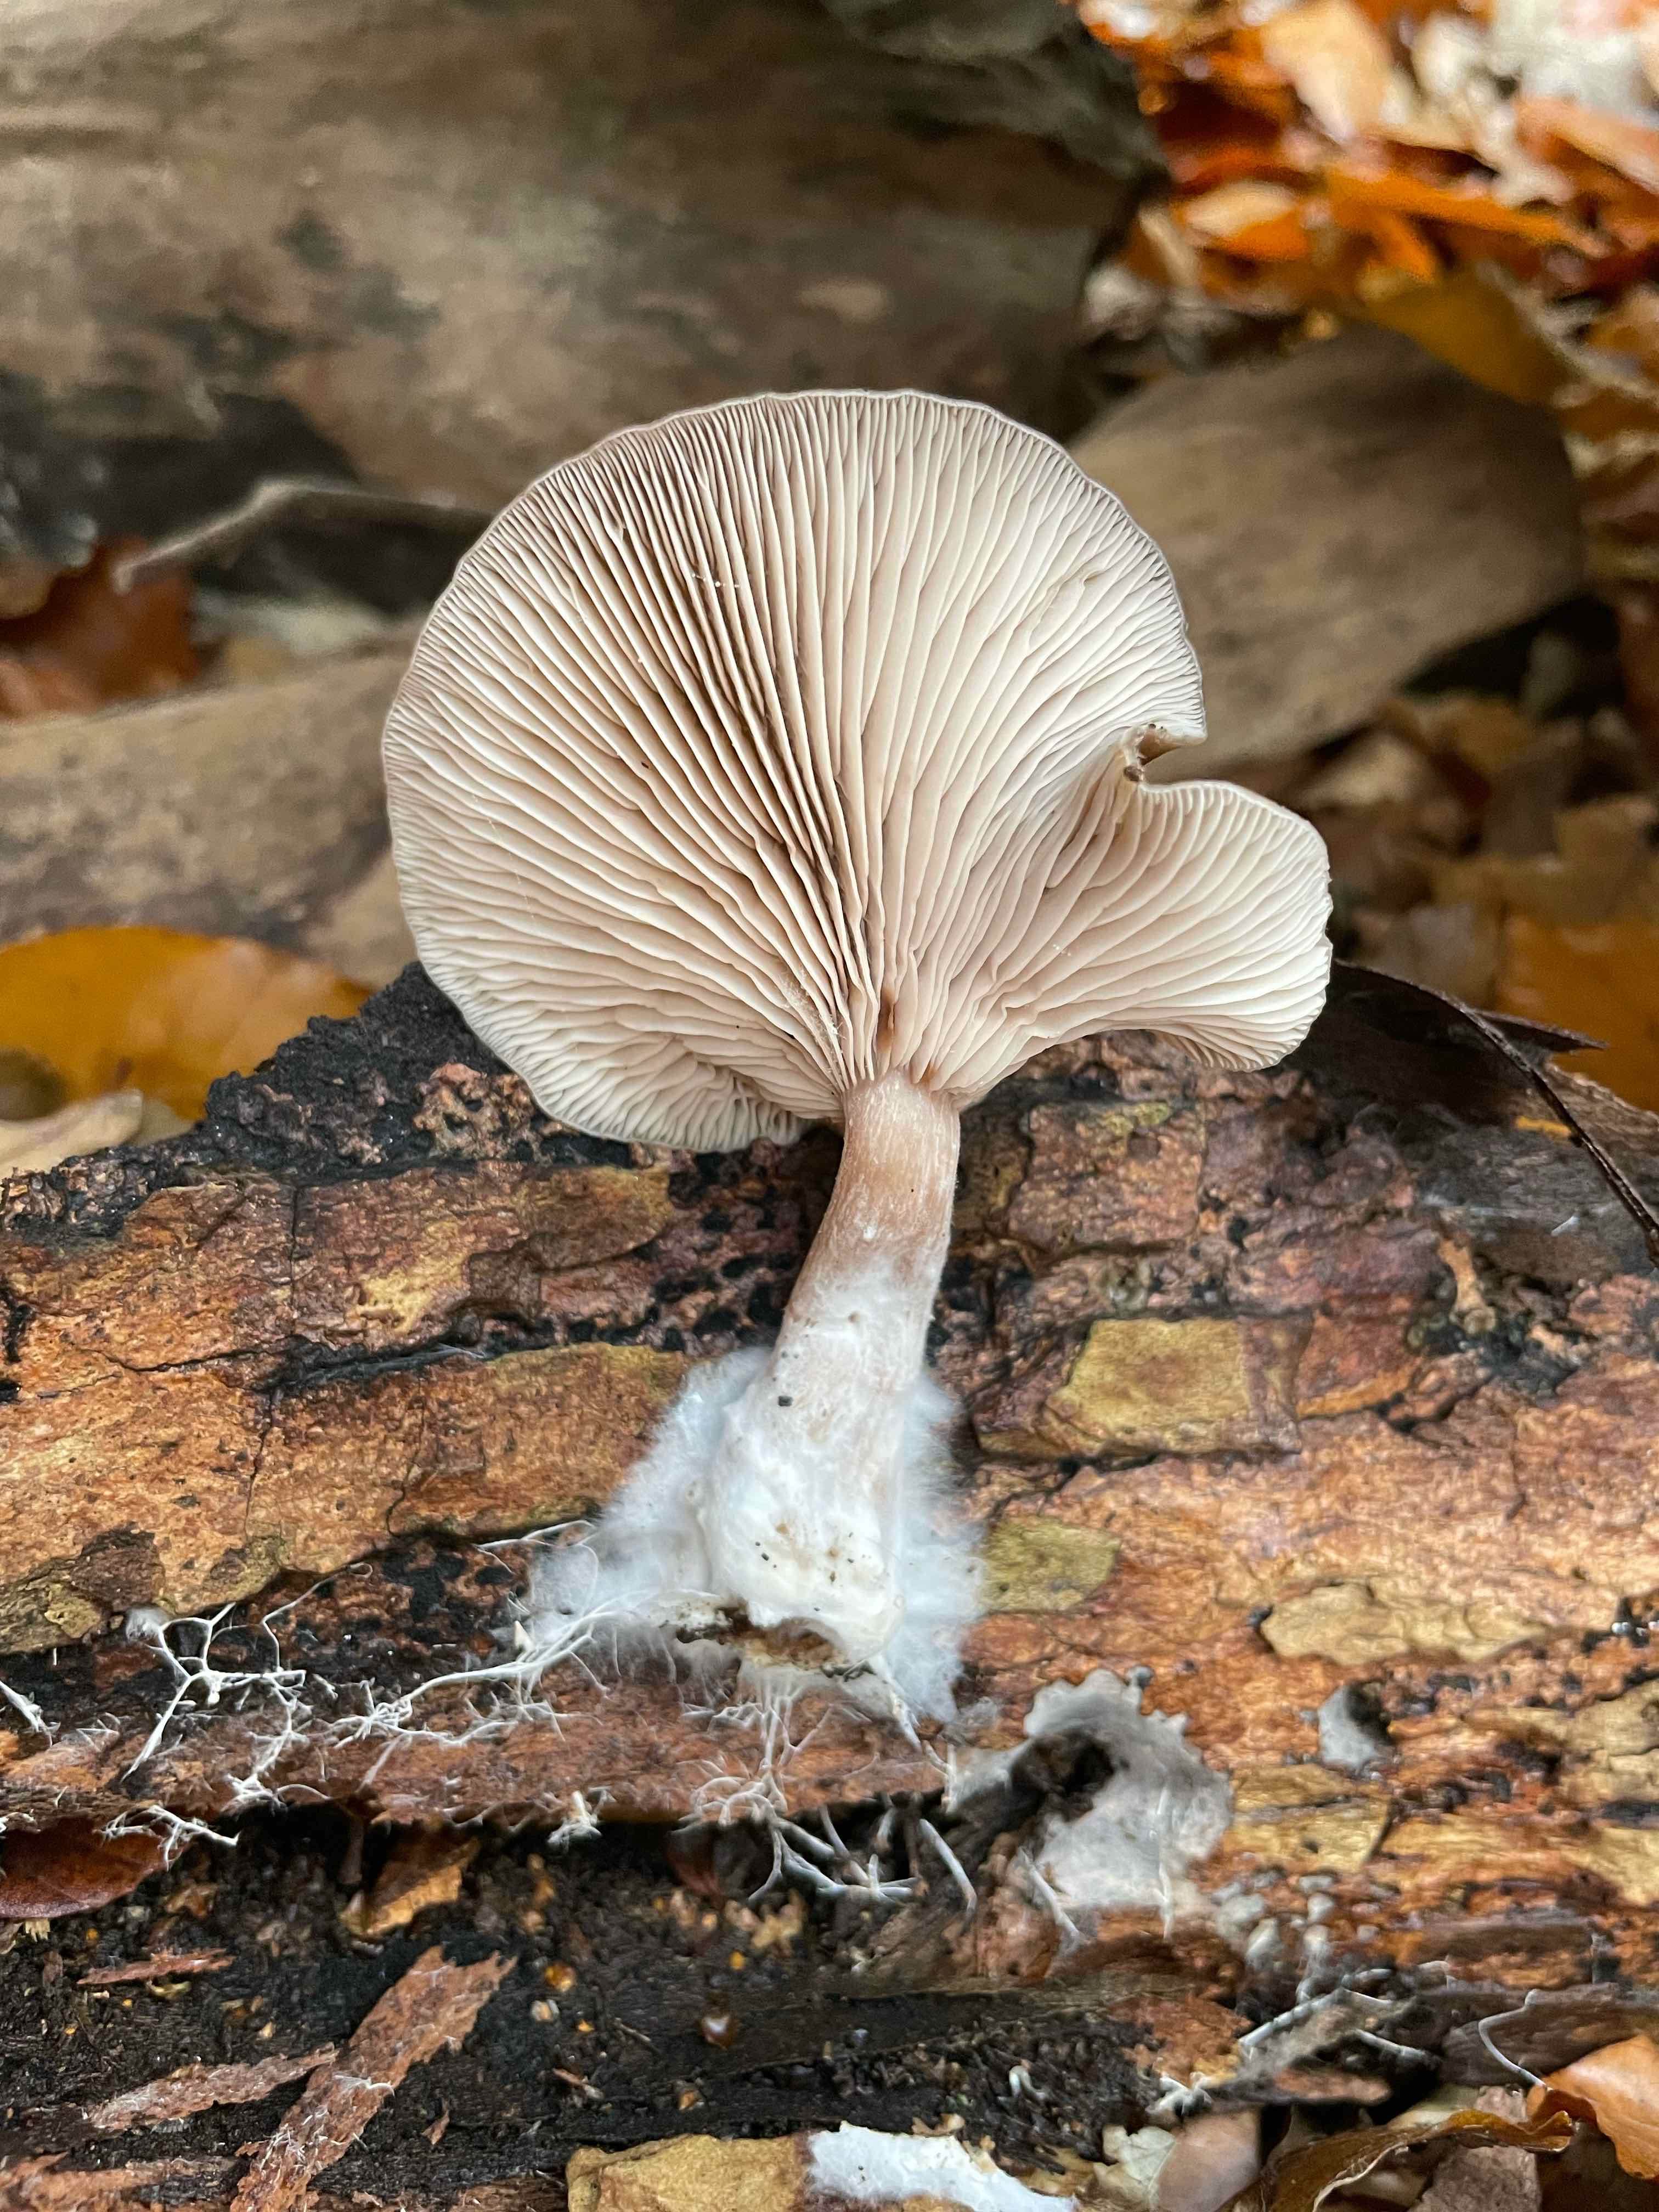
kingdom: Fungi
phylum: Basidiomycota
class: Agaricomycetes
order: Agaricales
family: Pseudoclitocybaceae
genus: Pseudoclitocybe
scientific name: Pseudoclitocybe cyathiformis
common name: almindelig bægertragthat
